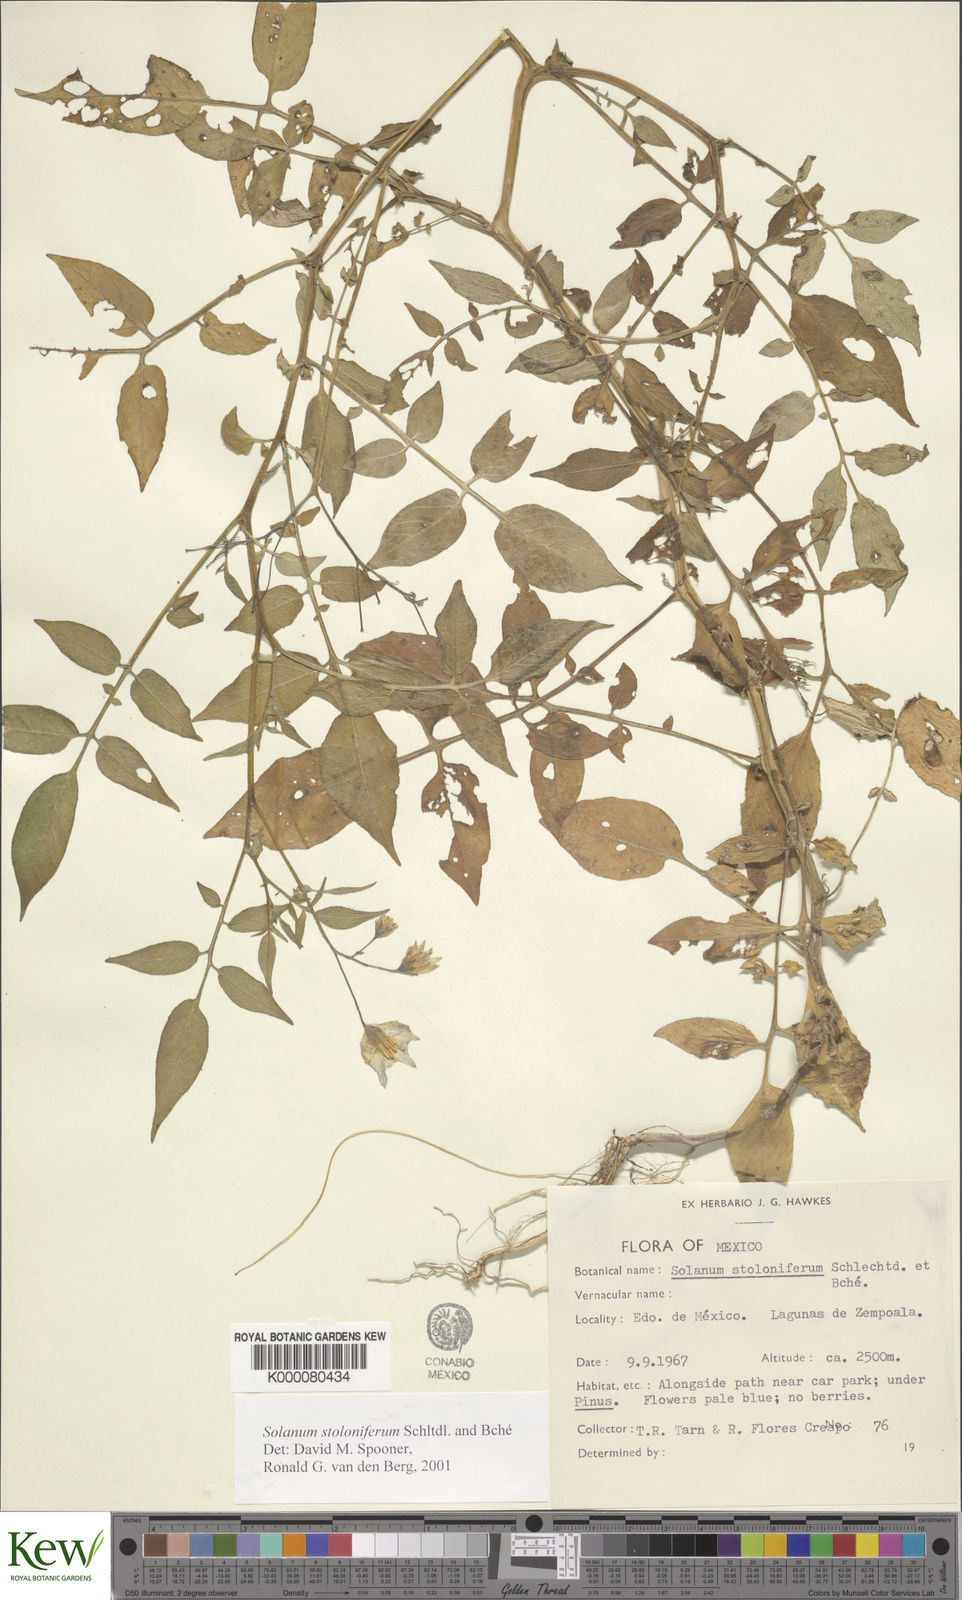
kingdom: Plantae
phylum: Tracheophyta
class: Magnoliopsida
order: Solanales
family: Solanaceae
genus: Solanum
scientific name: Solanum stoloniferum
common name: Fendler's nighshade
